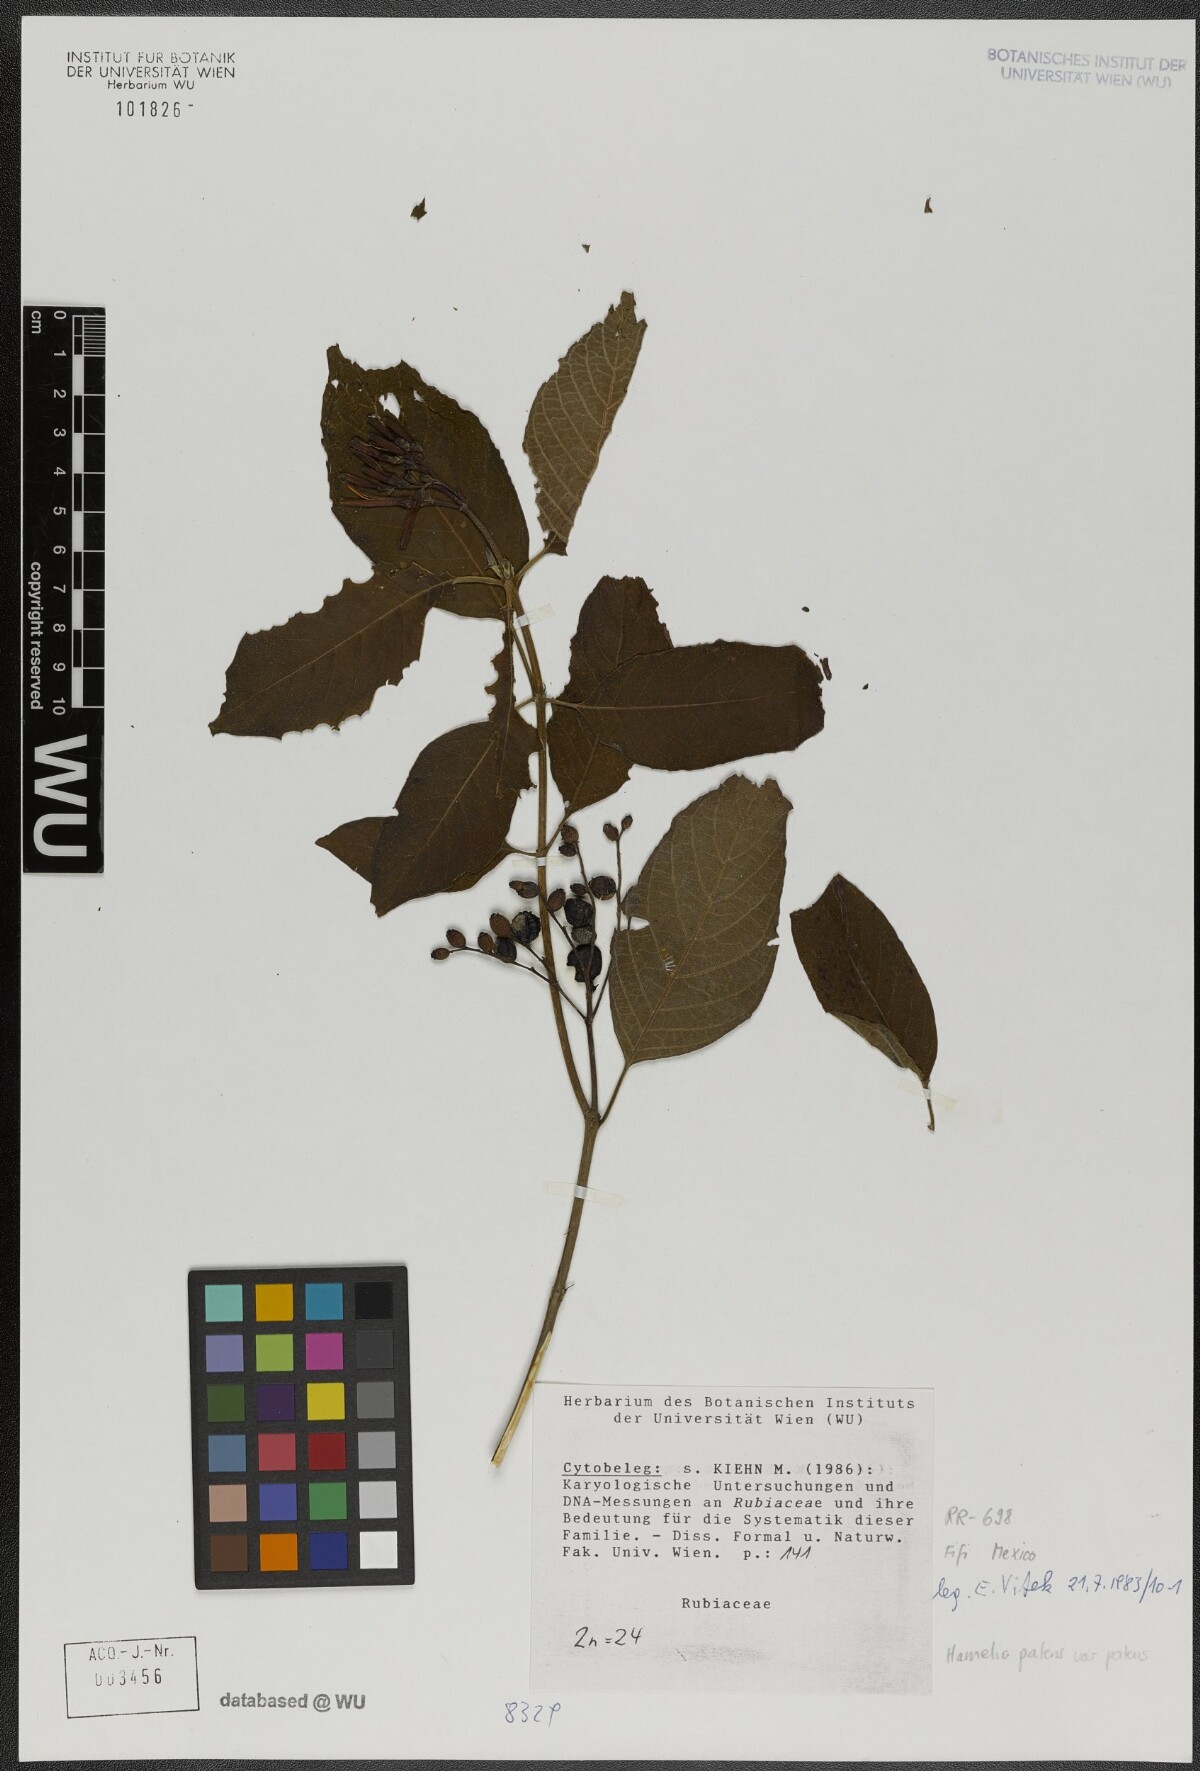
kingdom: Plantae
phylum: Tracheophyta
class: Magnoliopsida
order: Gentianales
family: Rubiaceae
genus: Hamelia
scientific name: Hamelia patens
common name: Redhead
